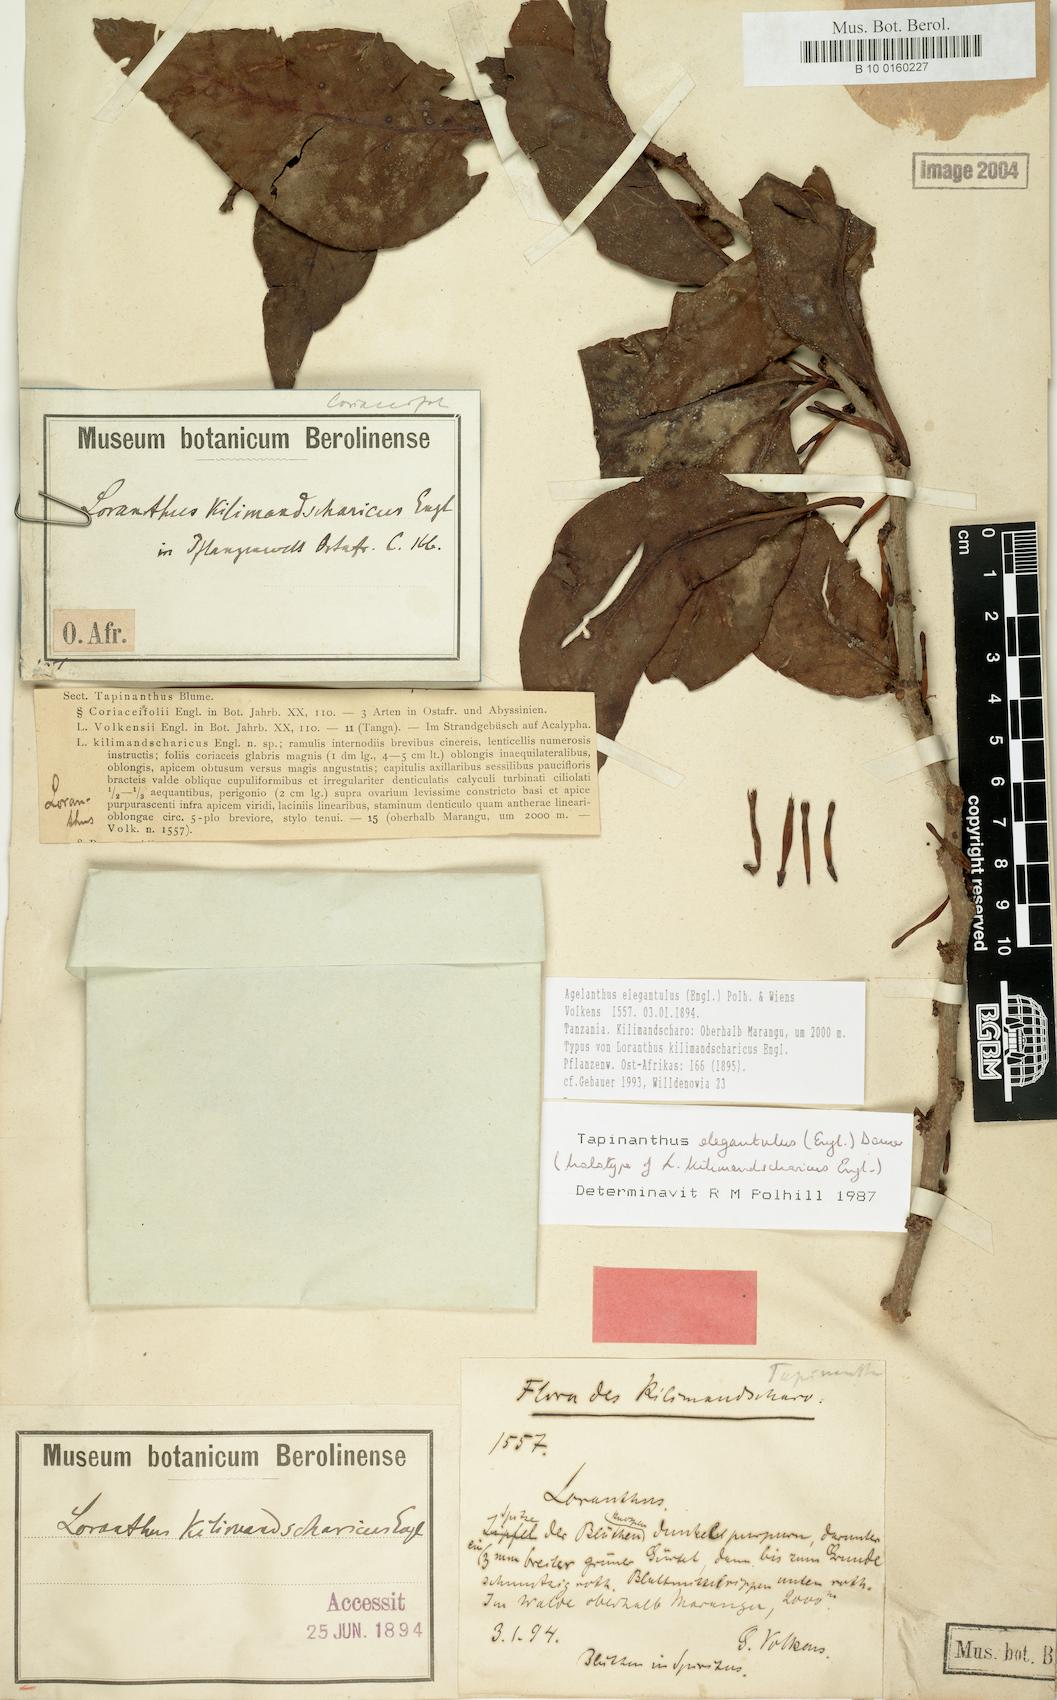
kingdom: Plantae
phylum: Tracheophyta
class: Magnoliopsida
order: Santalales
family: Loranthaceae
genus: Loranthella
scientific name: Loranthella kilimandscharica
